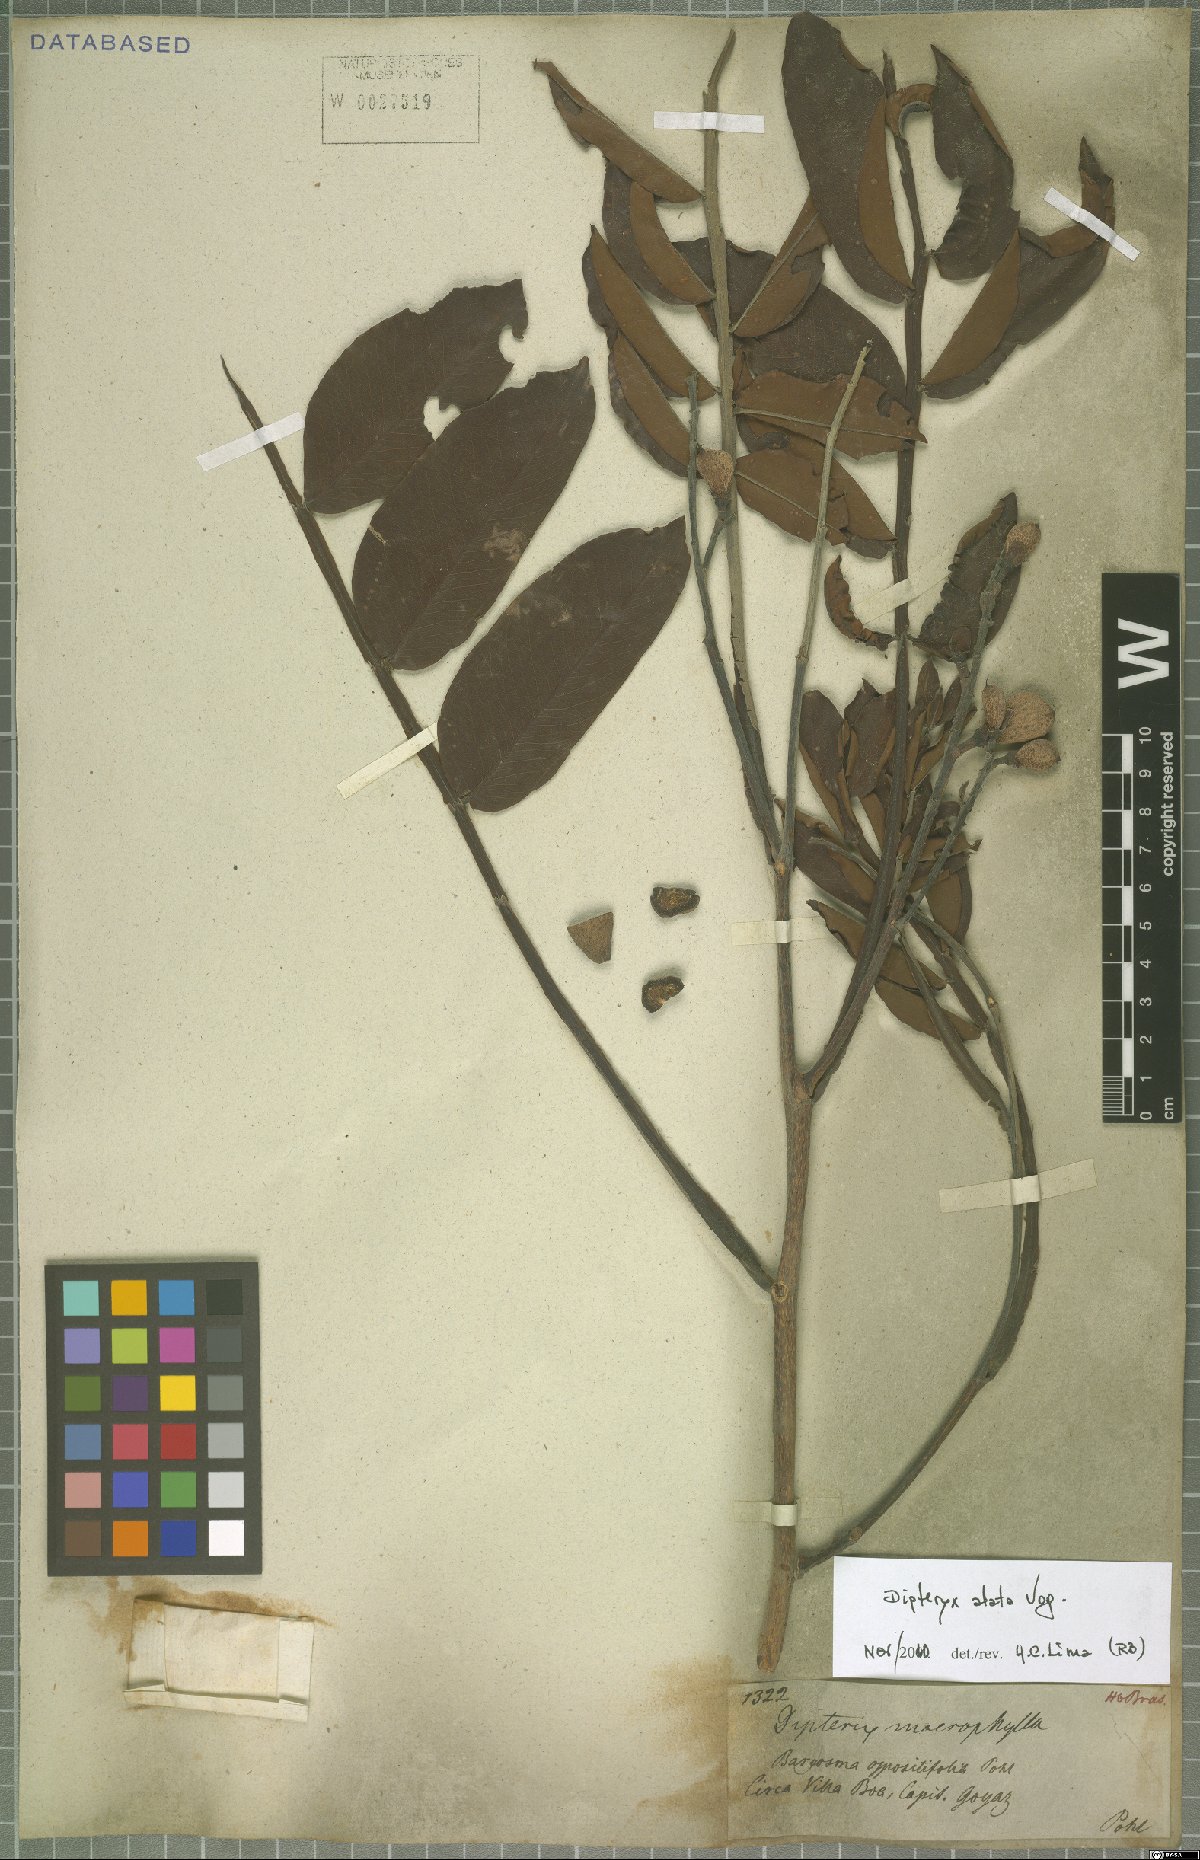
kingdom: Plantae
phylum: Tracheophyta
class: Magnoliopsida
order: Fabales
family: Fabaceae
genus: Dipteryx
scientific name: Dipteryx alata
